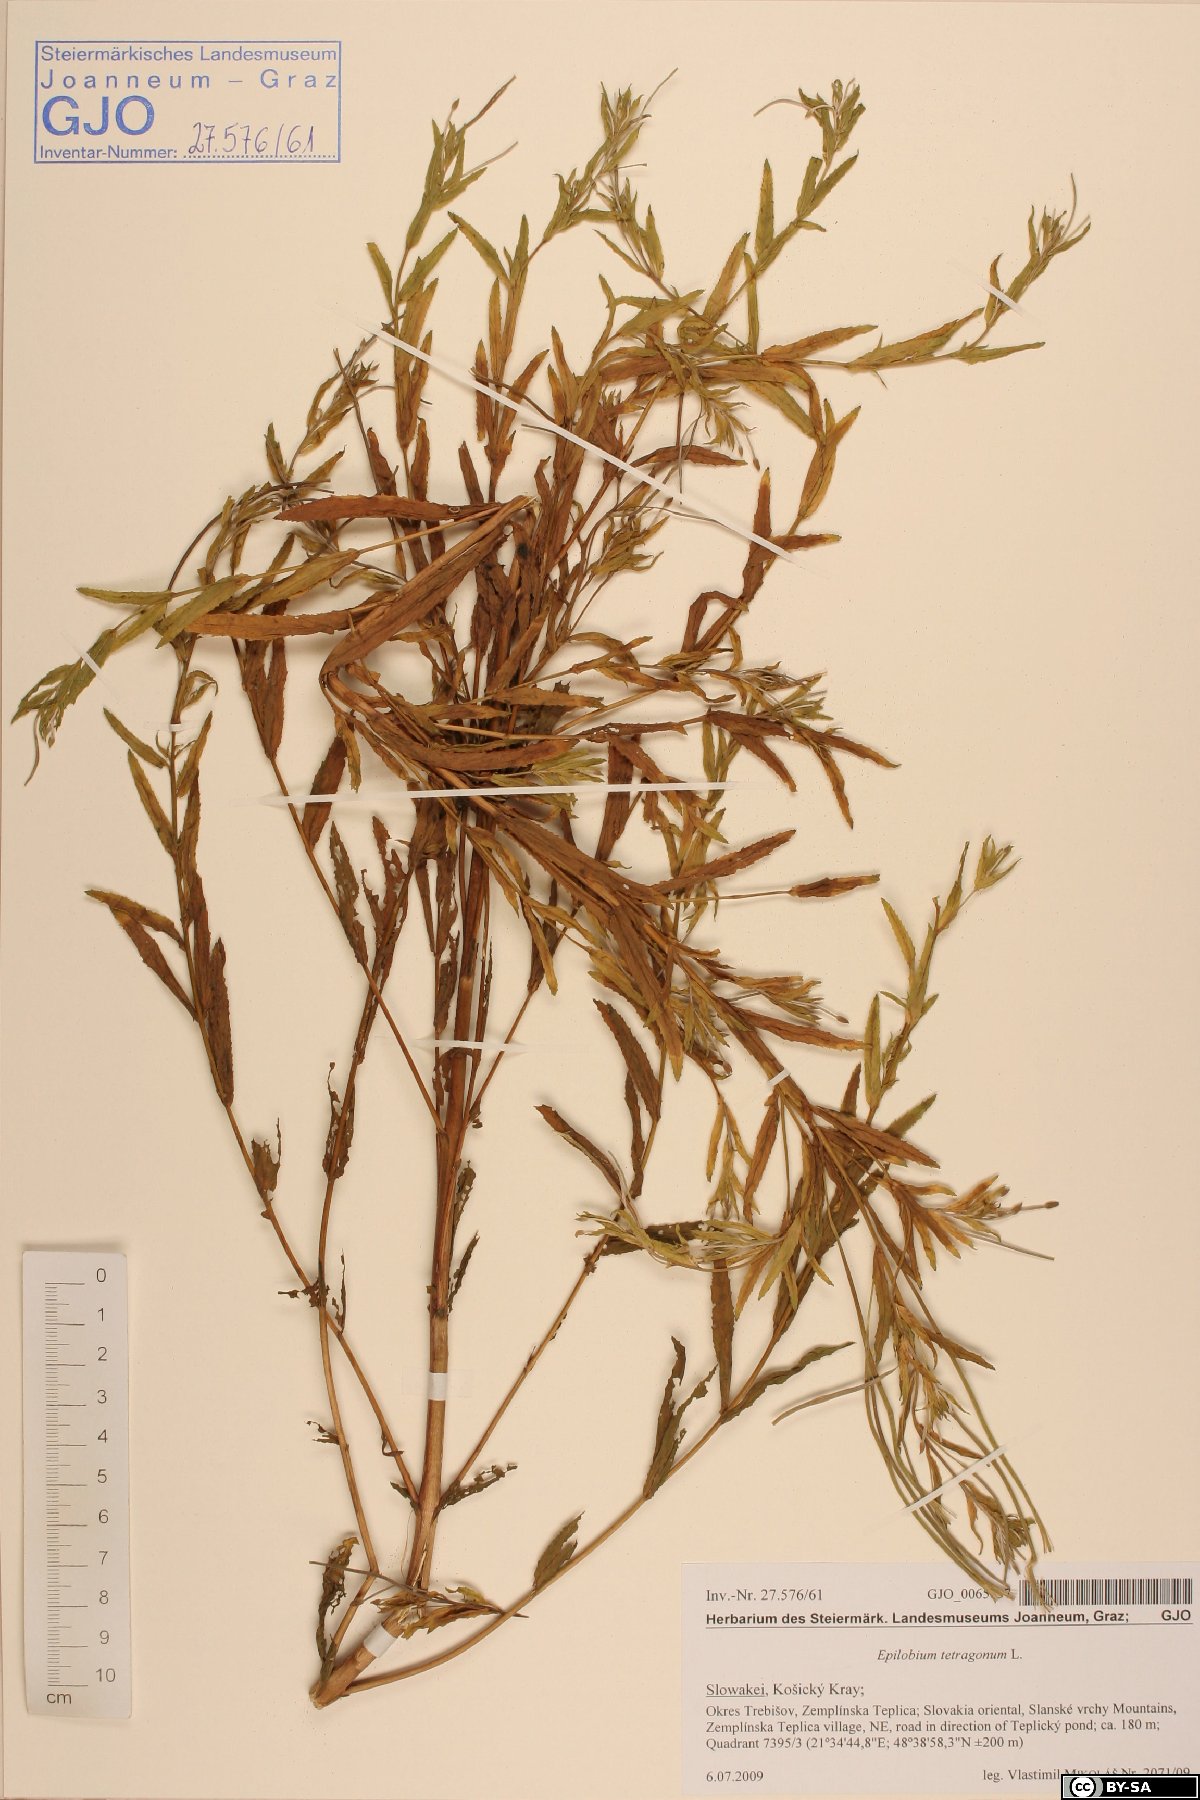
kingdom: Plantae
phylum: Tracheophyta
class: Magnoliopsida
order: Myrtales
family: Onagraceae
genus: Epilobium
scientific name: Epilobium tetragonum
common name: Square-stemmed willowherb
